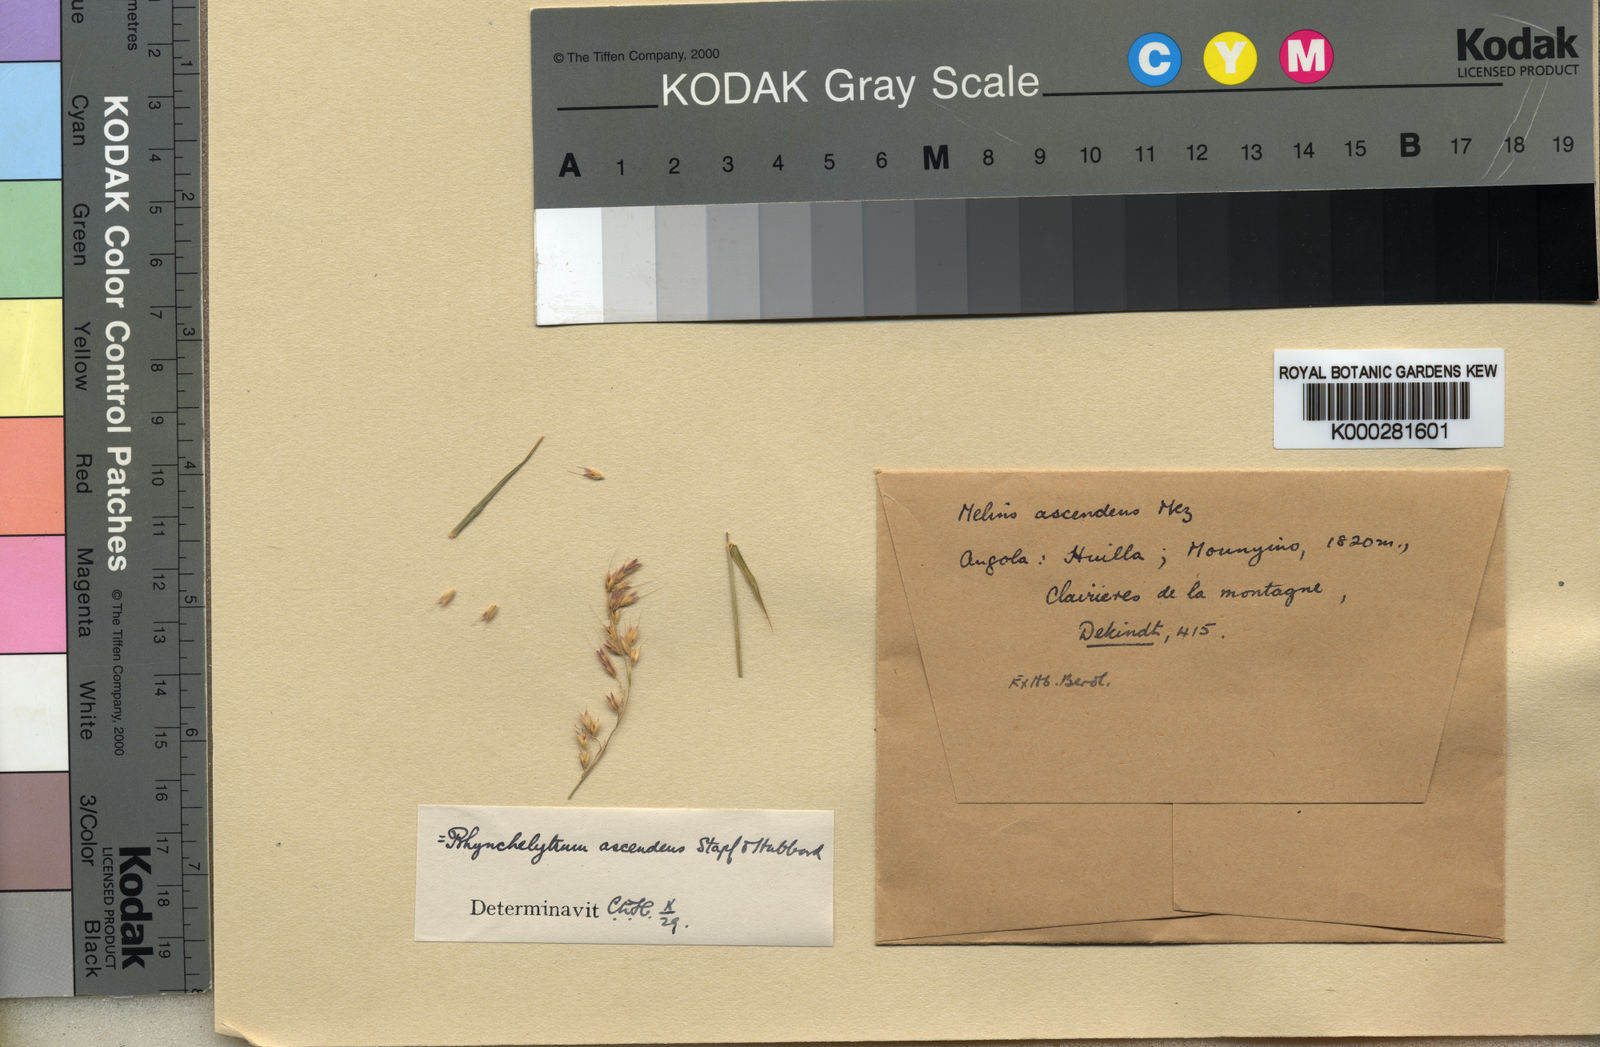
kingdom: Plantae
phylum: Tracheophyta
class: Liliopsida
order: Poales
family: Poaceae
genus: Melinis
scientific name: Melinis ascendens
